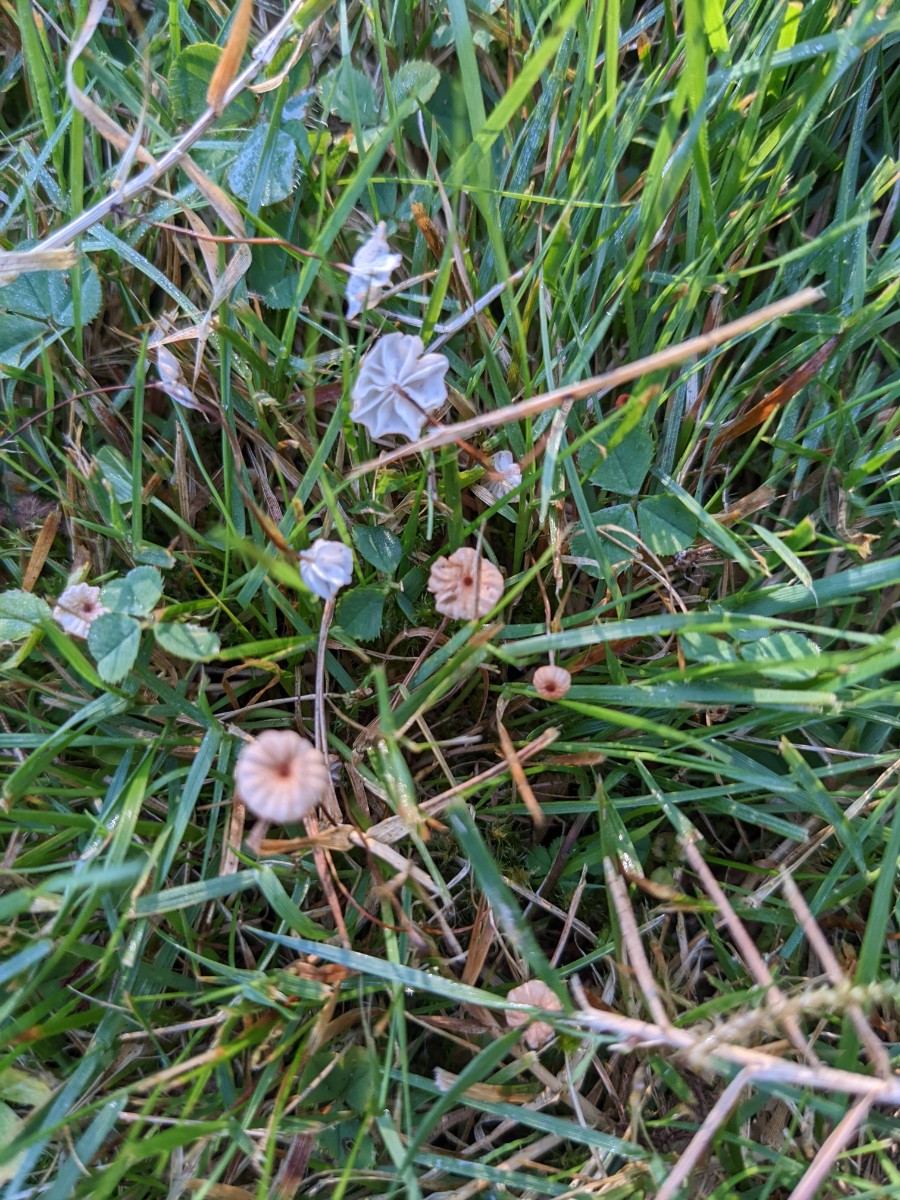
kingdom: Fungi
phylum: Basidiomycota
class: Agaricomycetes
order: Agaricales
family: Marasmiaceae
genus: Marasmius
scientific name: Marasmius curreyi
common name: teglrød bruskhat
